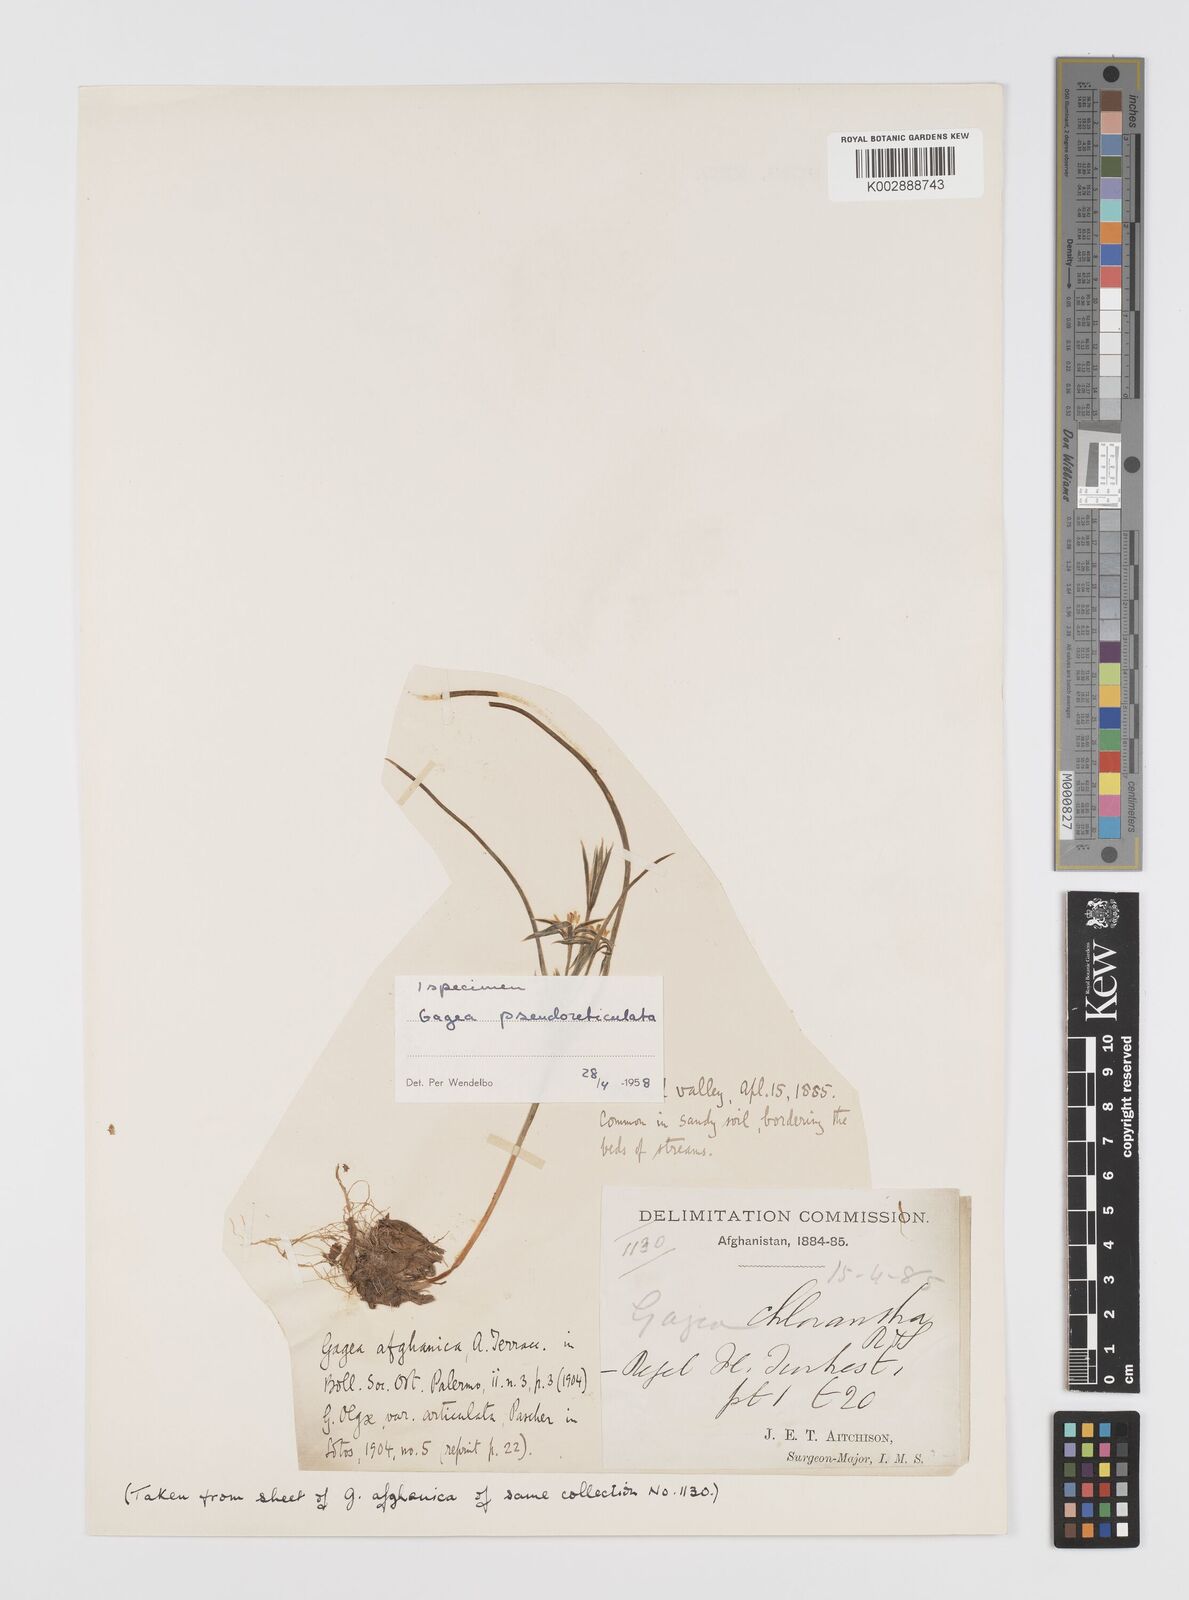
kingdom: Plantae
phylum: Tracheophyta
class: Liliopsida
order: Liliales
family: Liliaceae
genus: Gagea
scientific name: Gagea reticulata
